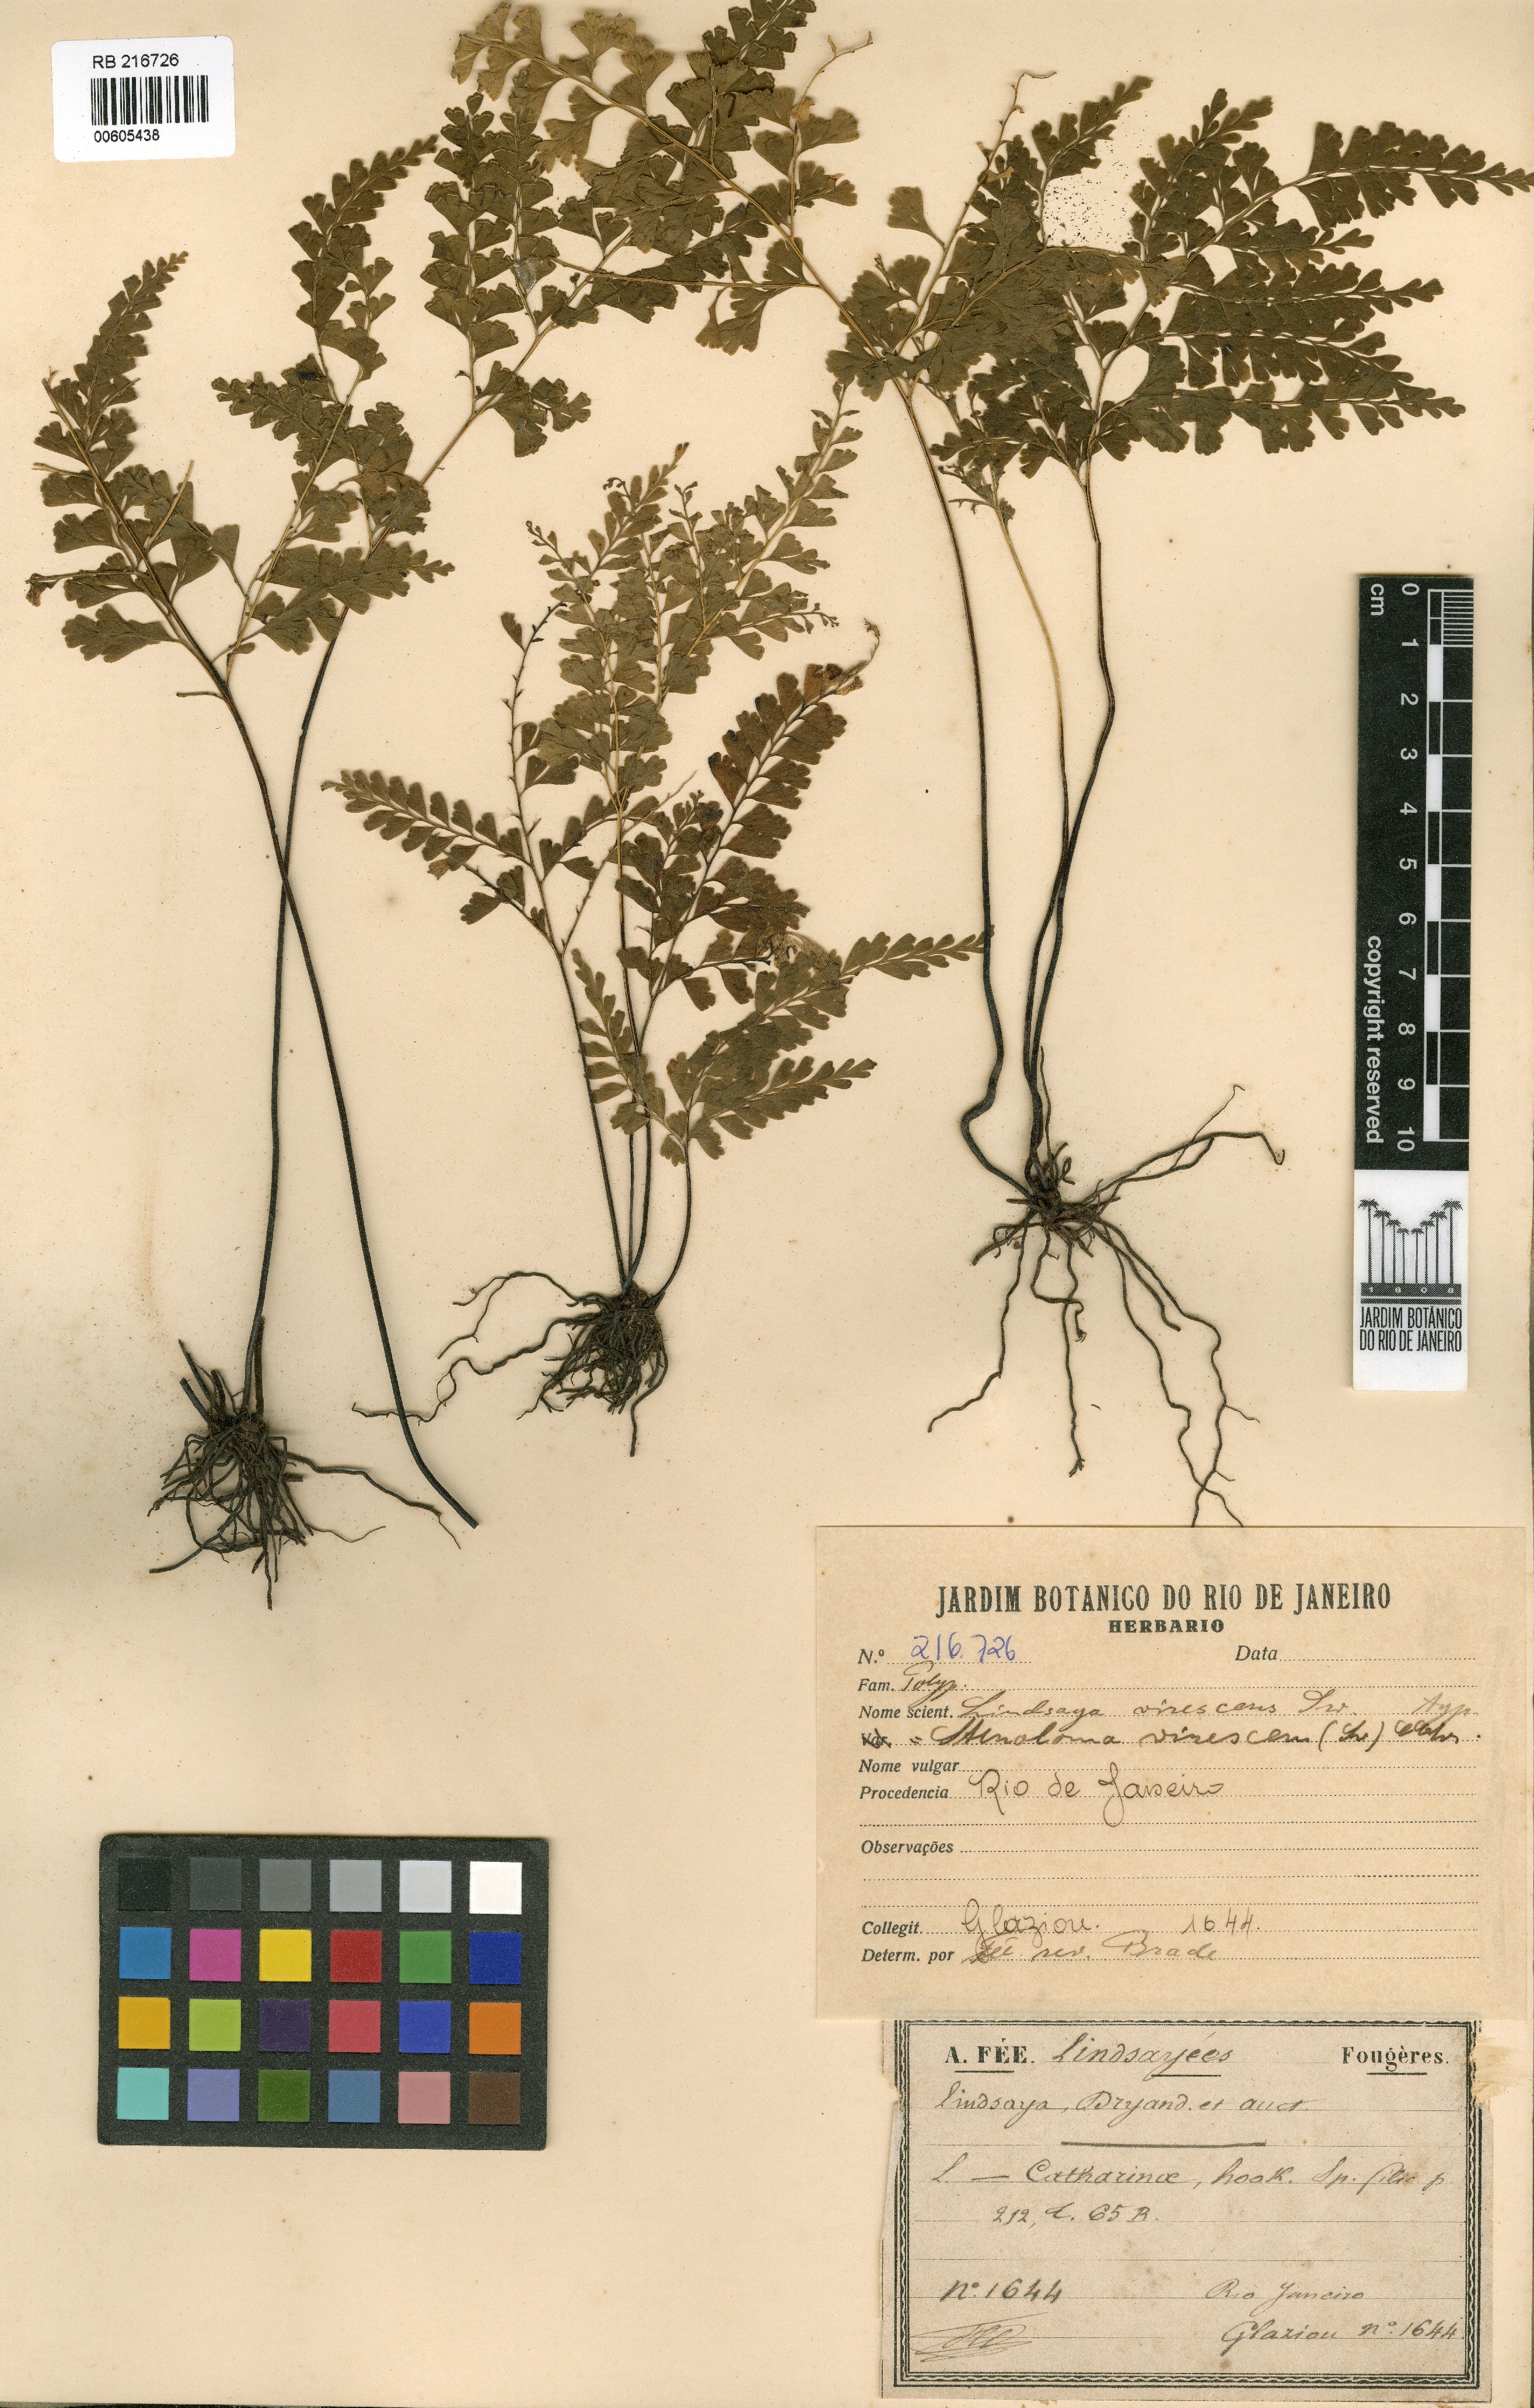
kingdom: Plantae
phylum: Tracheophyta
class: Polypodiopsida
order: Polypodiales
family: Lindsaeaceae
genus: Lindsaea
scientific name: Lindsaea virescens
